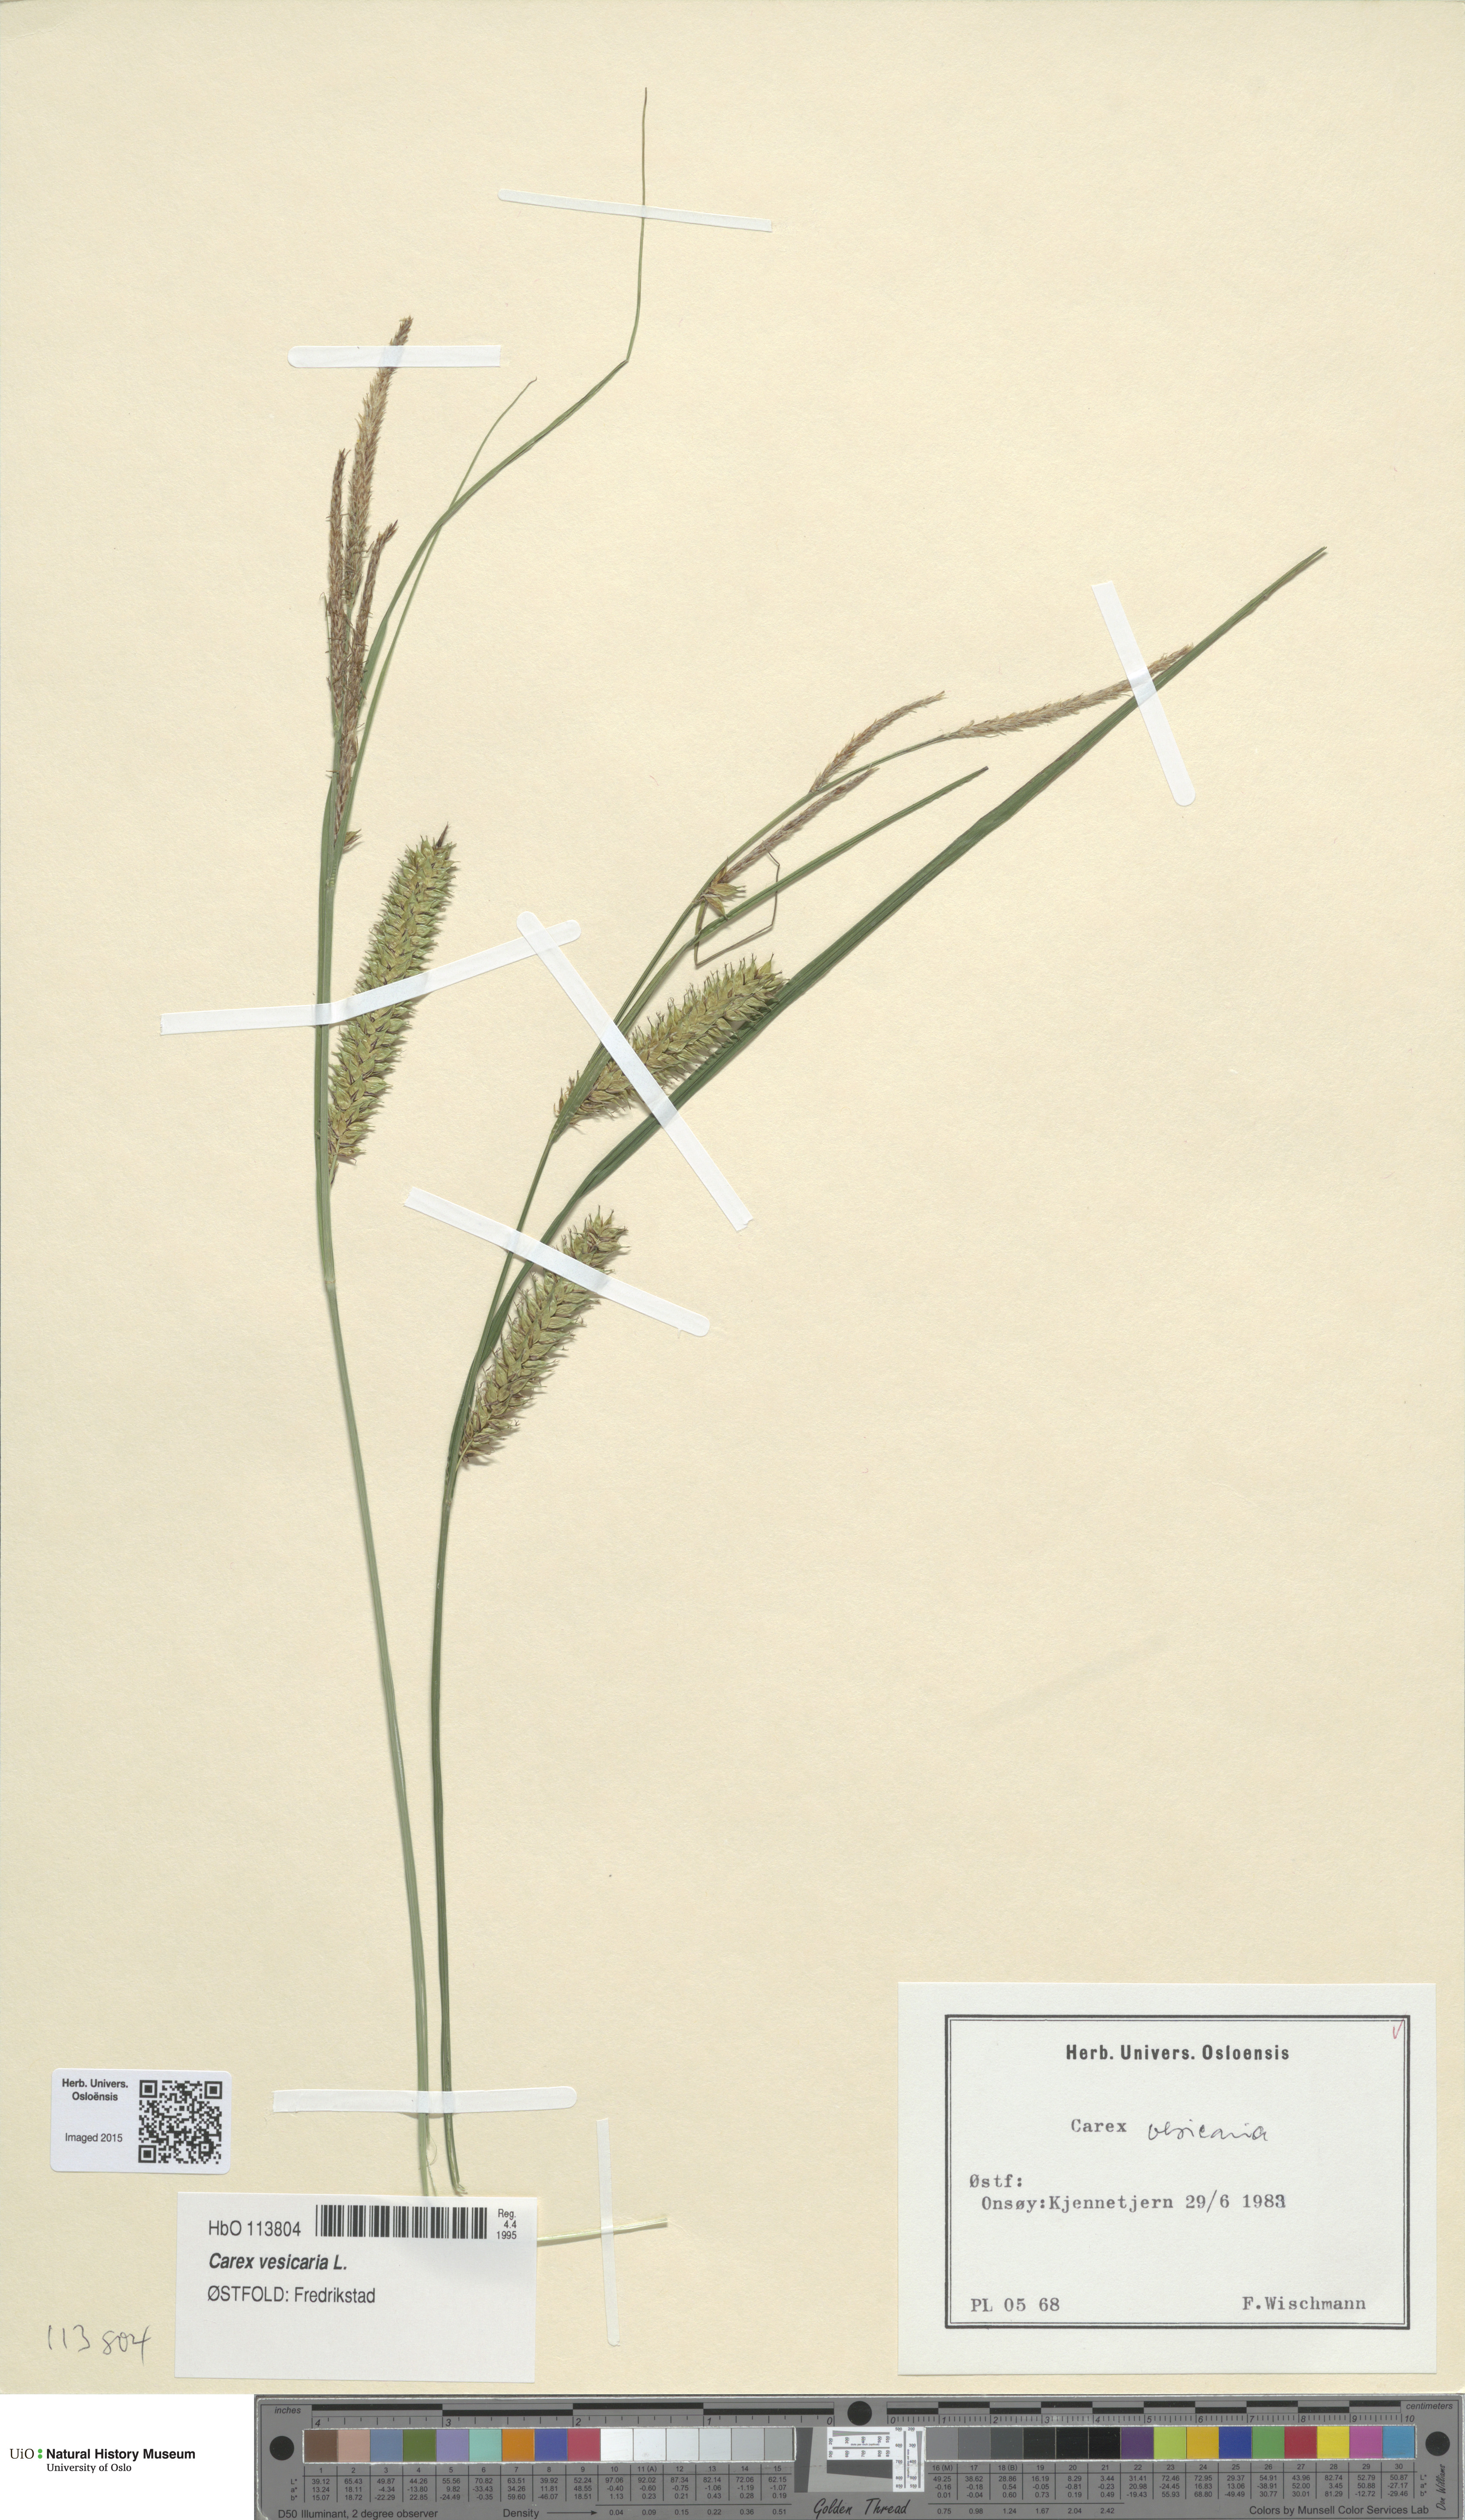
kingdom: Plantae
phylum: Tracheophyta
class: Liliopsida
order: Poales
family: Cyperaceae
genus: Carex
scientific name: Carex vesicaria
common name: Bladder-sedge
